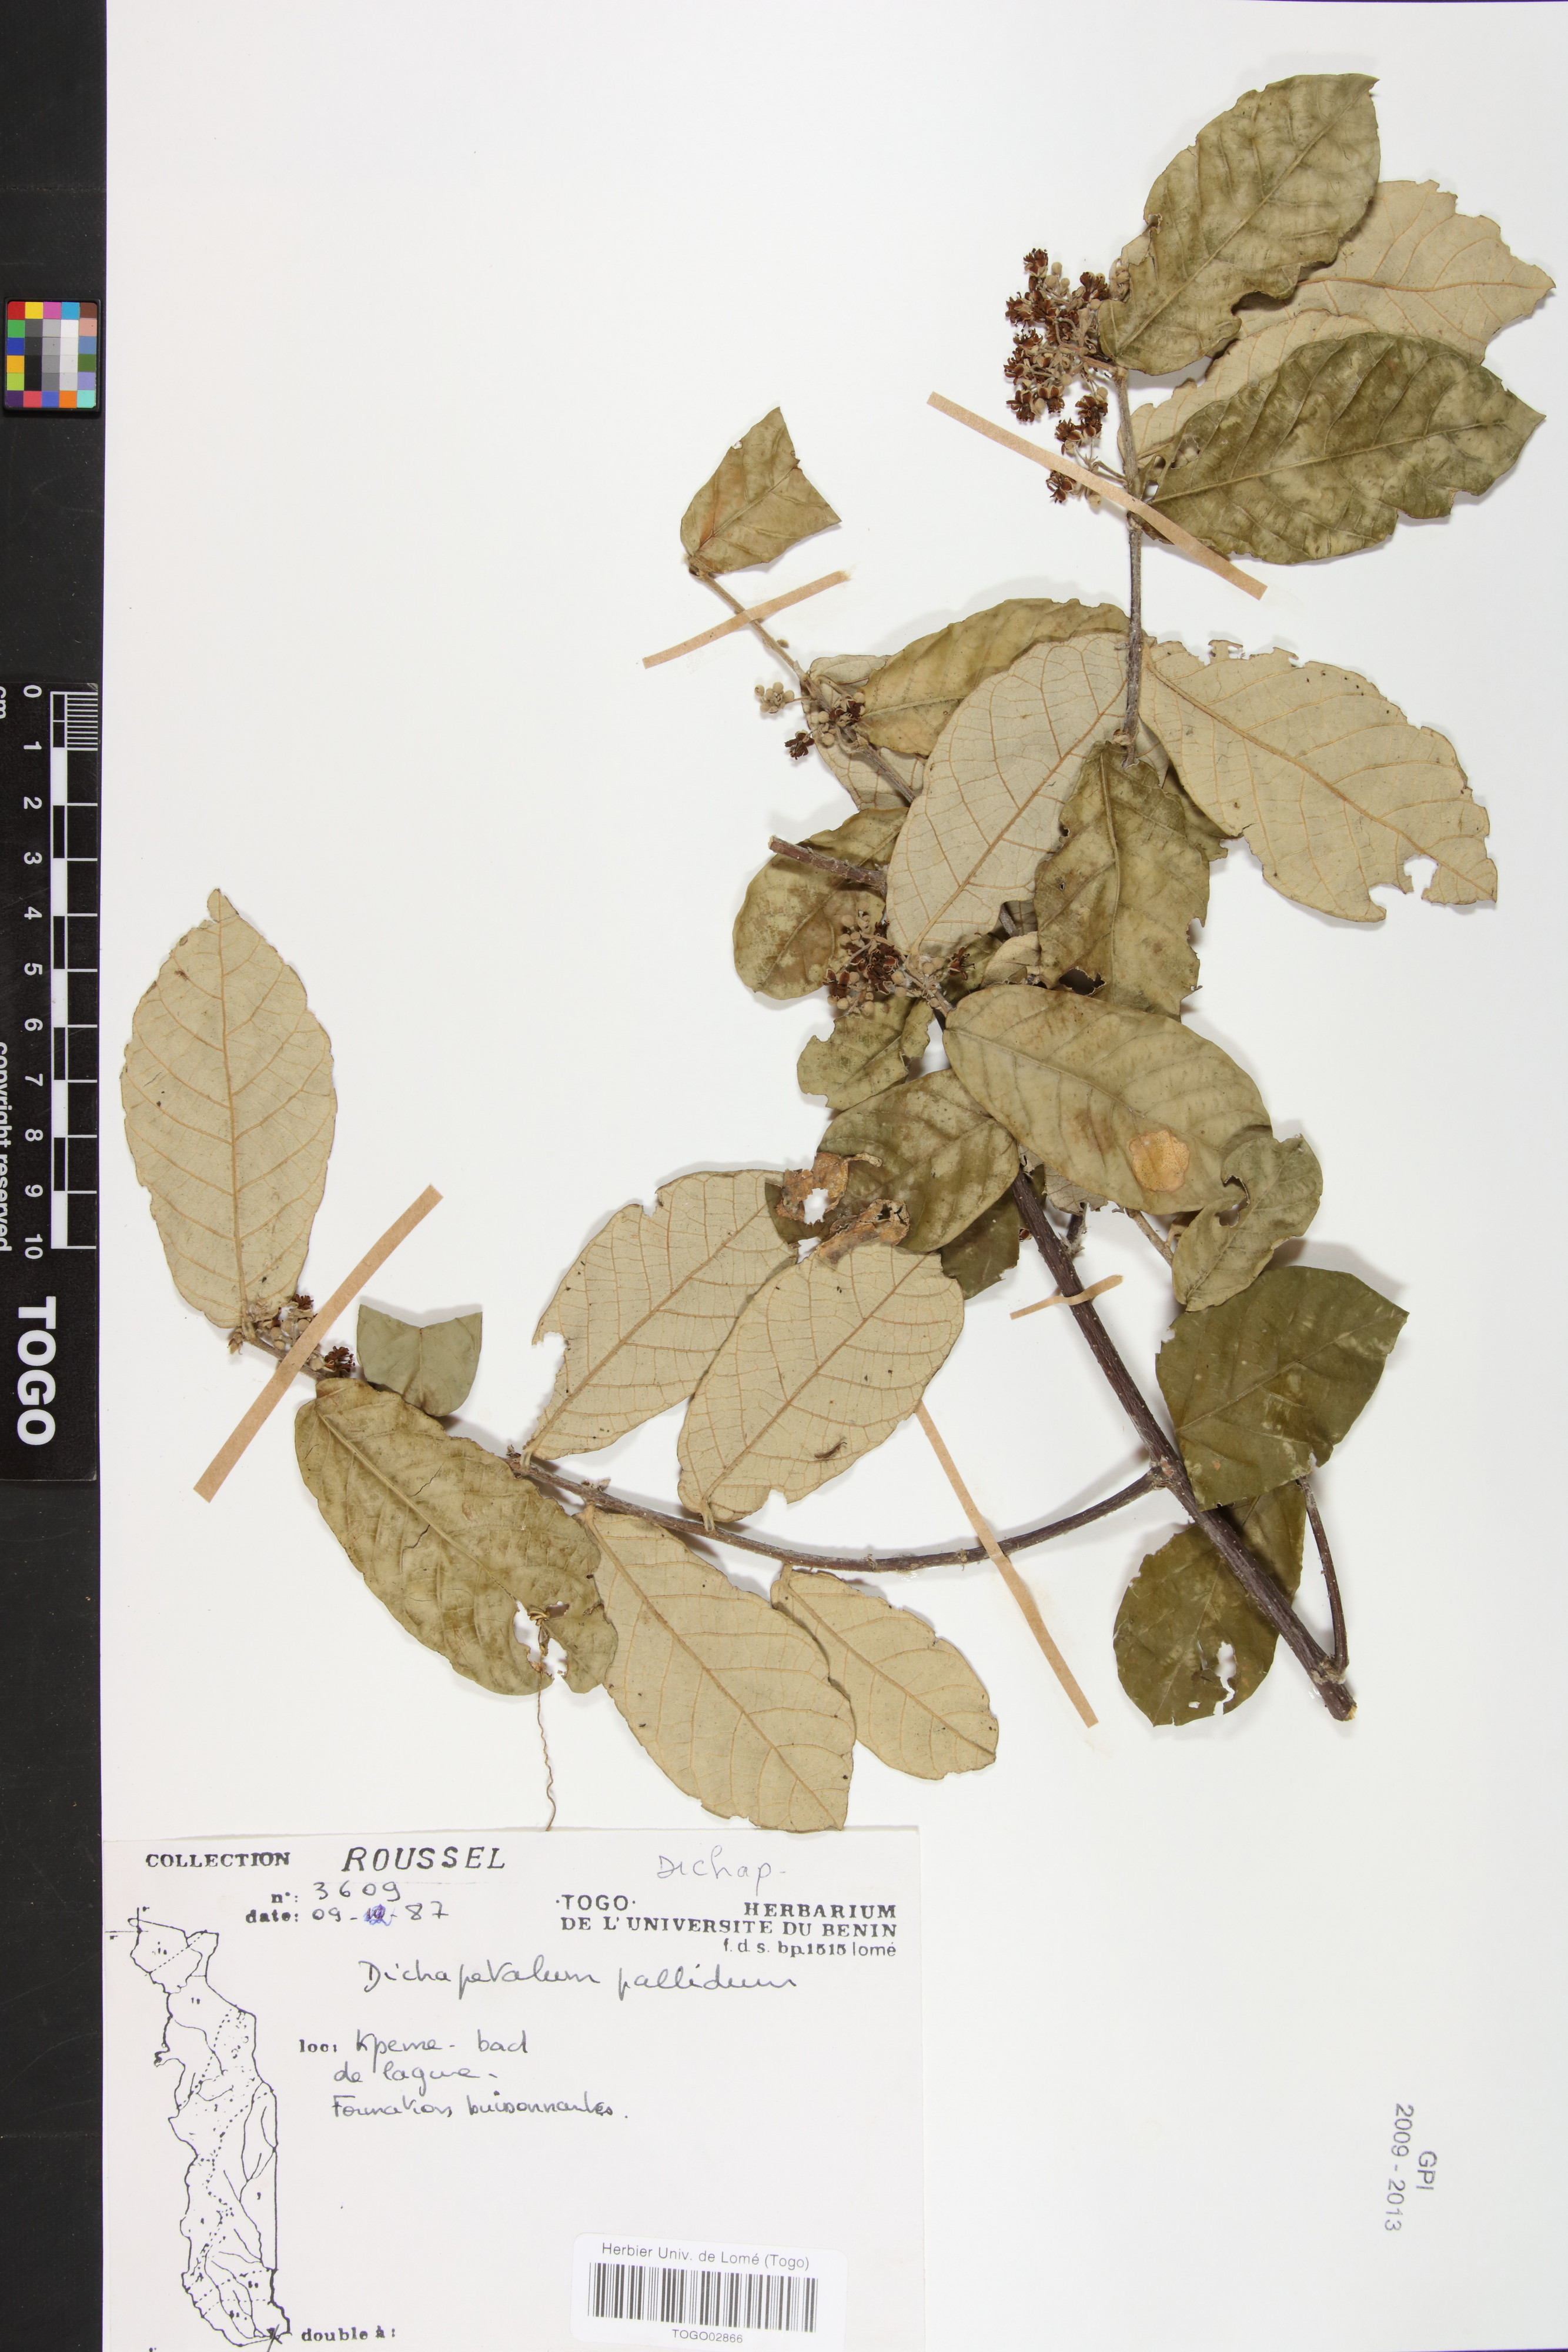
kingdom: Plantae
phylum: Tracheophyta
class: Magnoliopsida
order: Malpighiales
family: Dichapetalaceae
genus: Dichapetalum
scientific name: Dichapetalum pallidum
